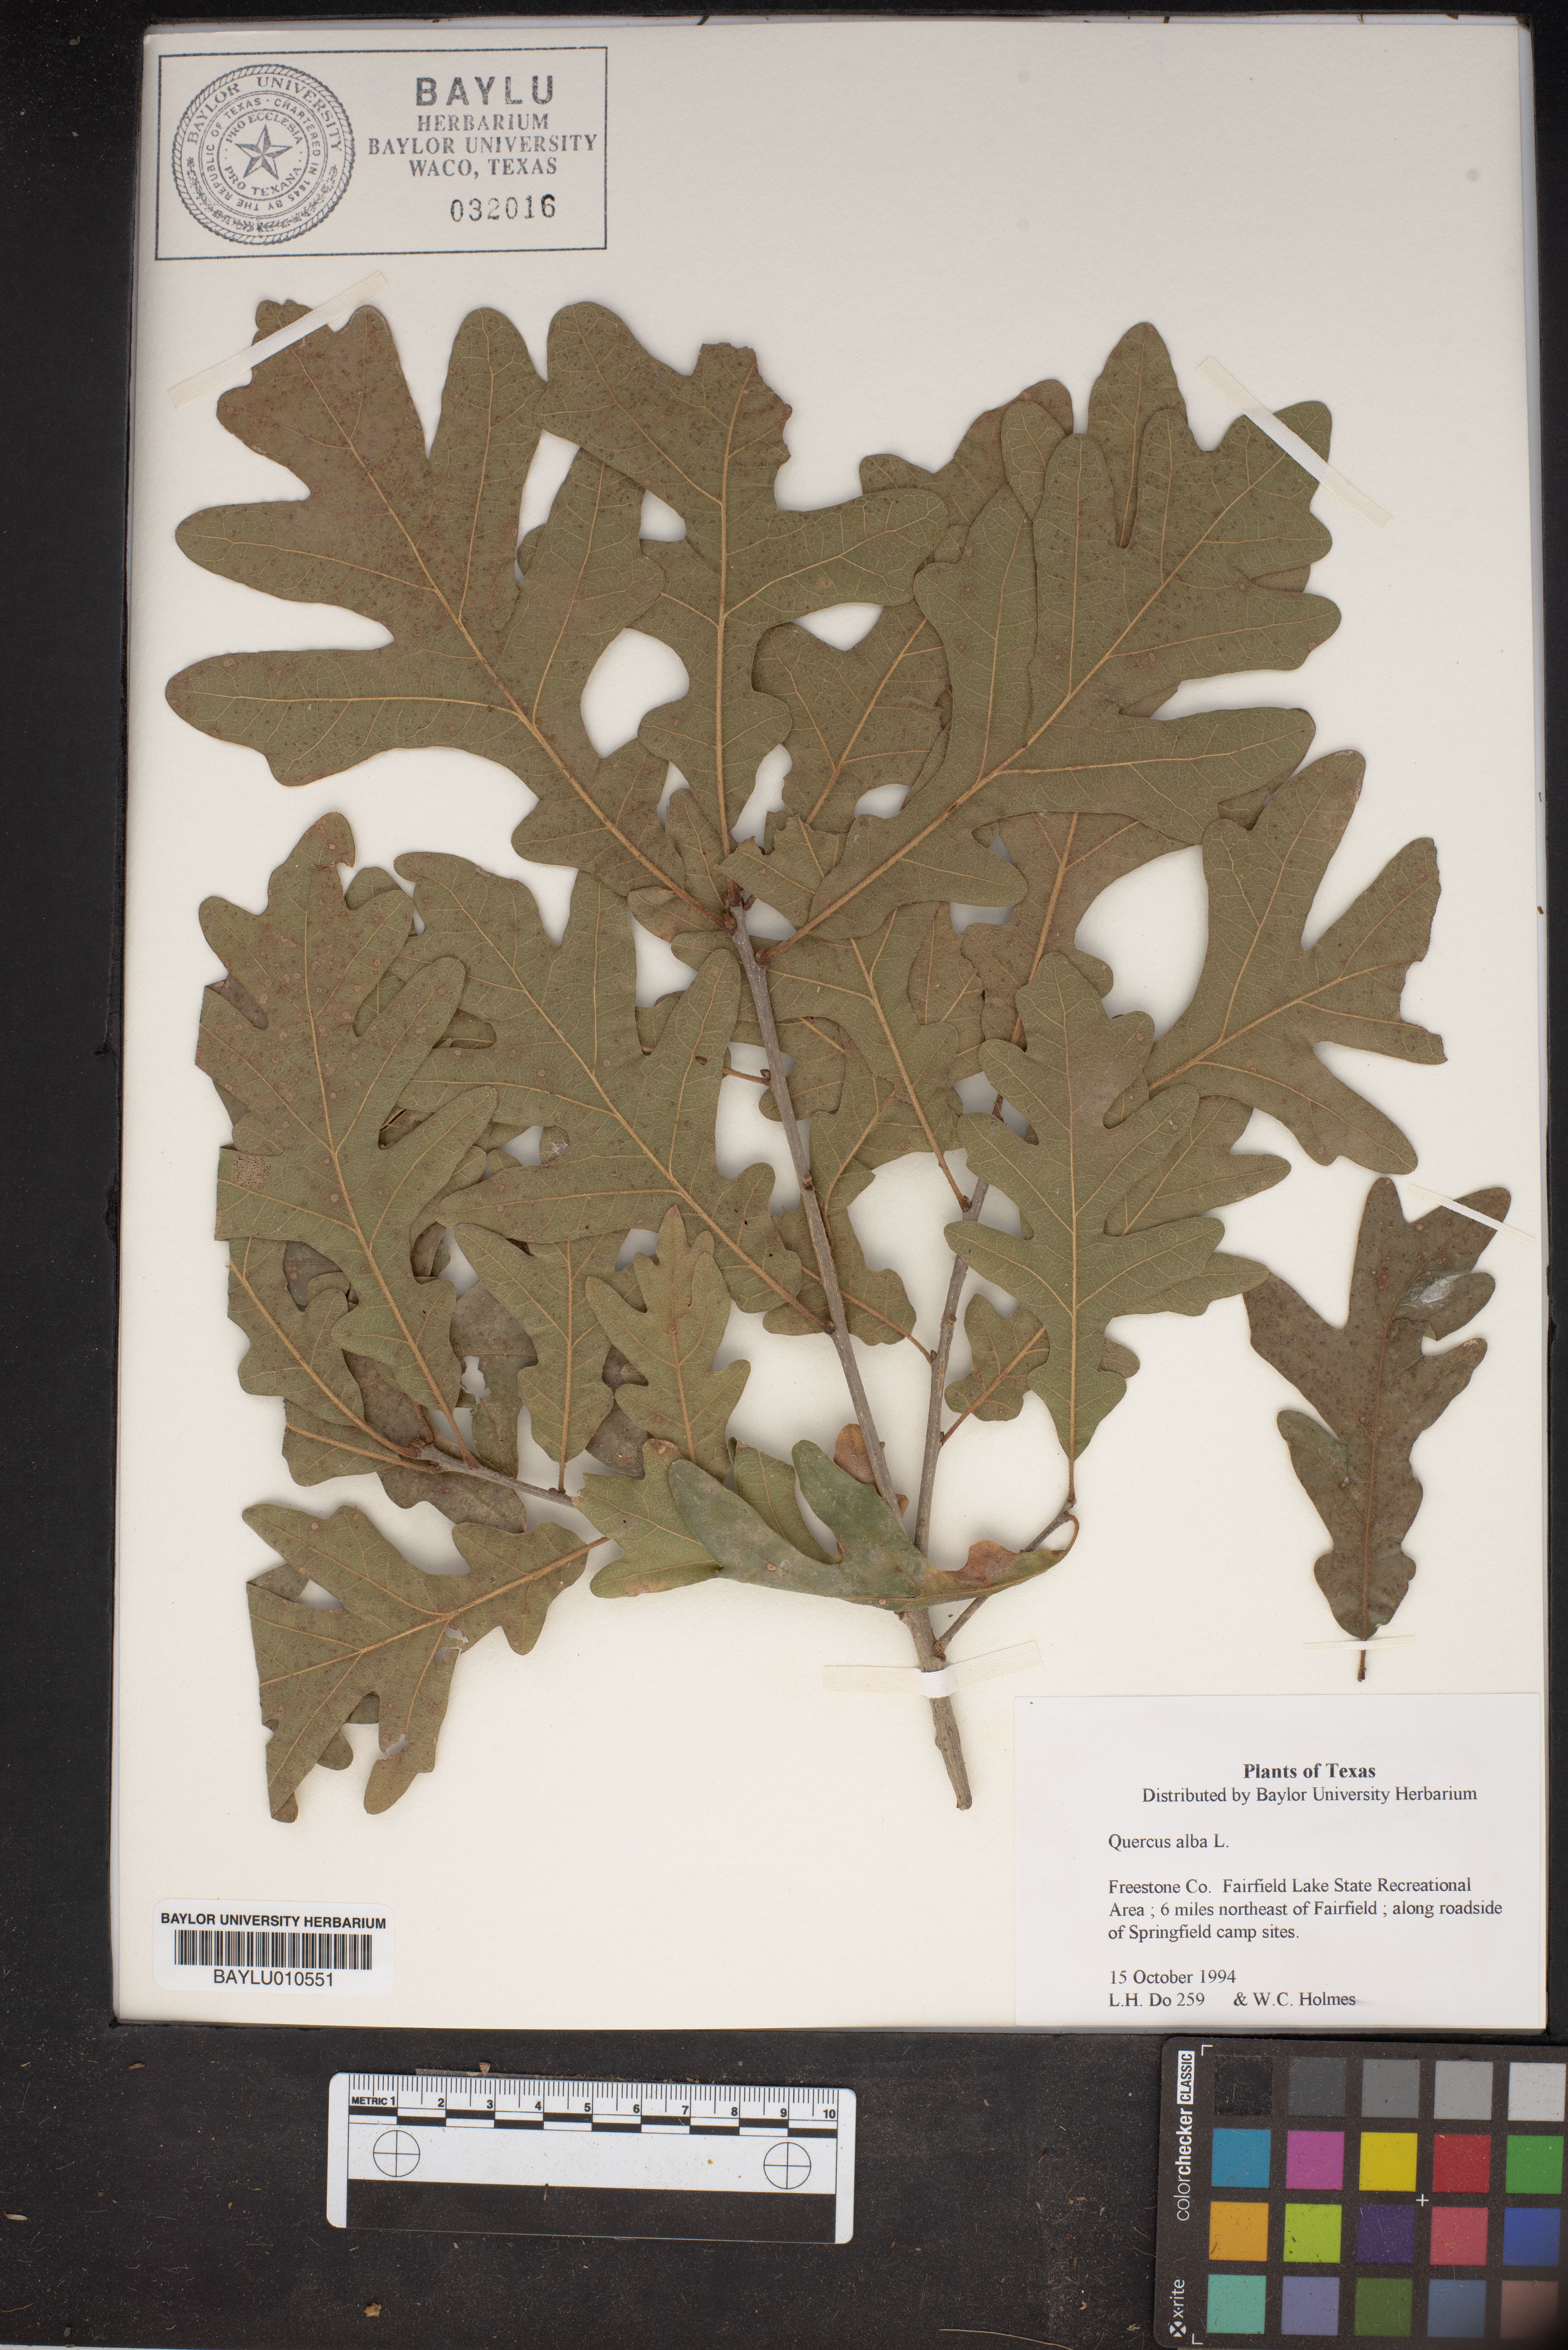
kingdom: Plantae
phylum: Tracheophyta
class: Magnoliopsida
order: Fagales
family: Fagaceae
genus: Quercus
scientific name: Quercus alba
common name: White oak
